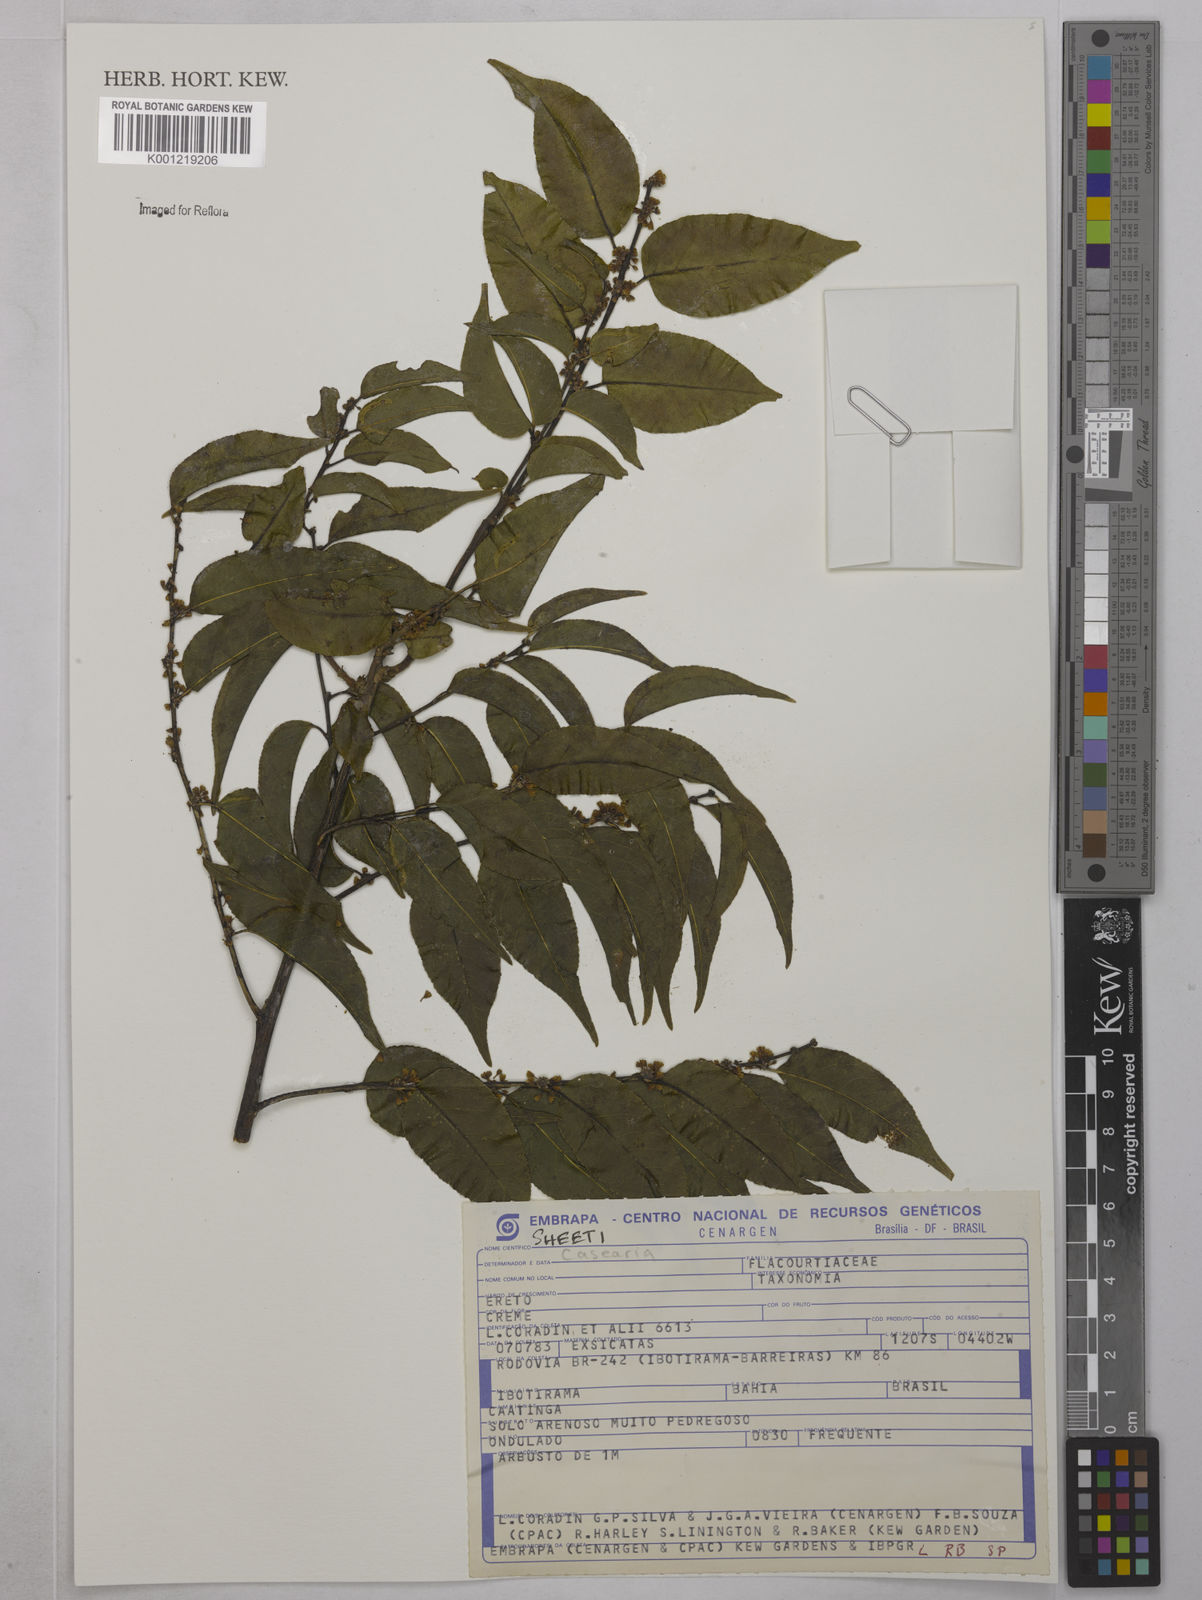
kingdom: Plantae
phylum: Tracheophyta
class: Magnoliopsida
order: Malpighiales
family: Salicaceae
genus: Casearia
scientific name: Casearia
